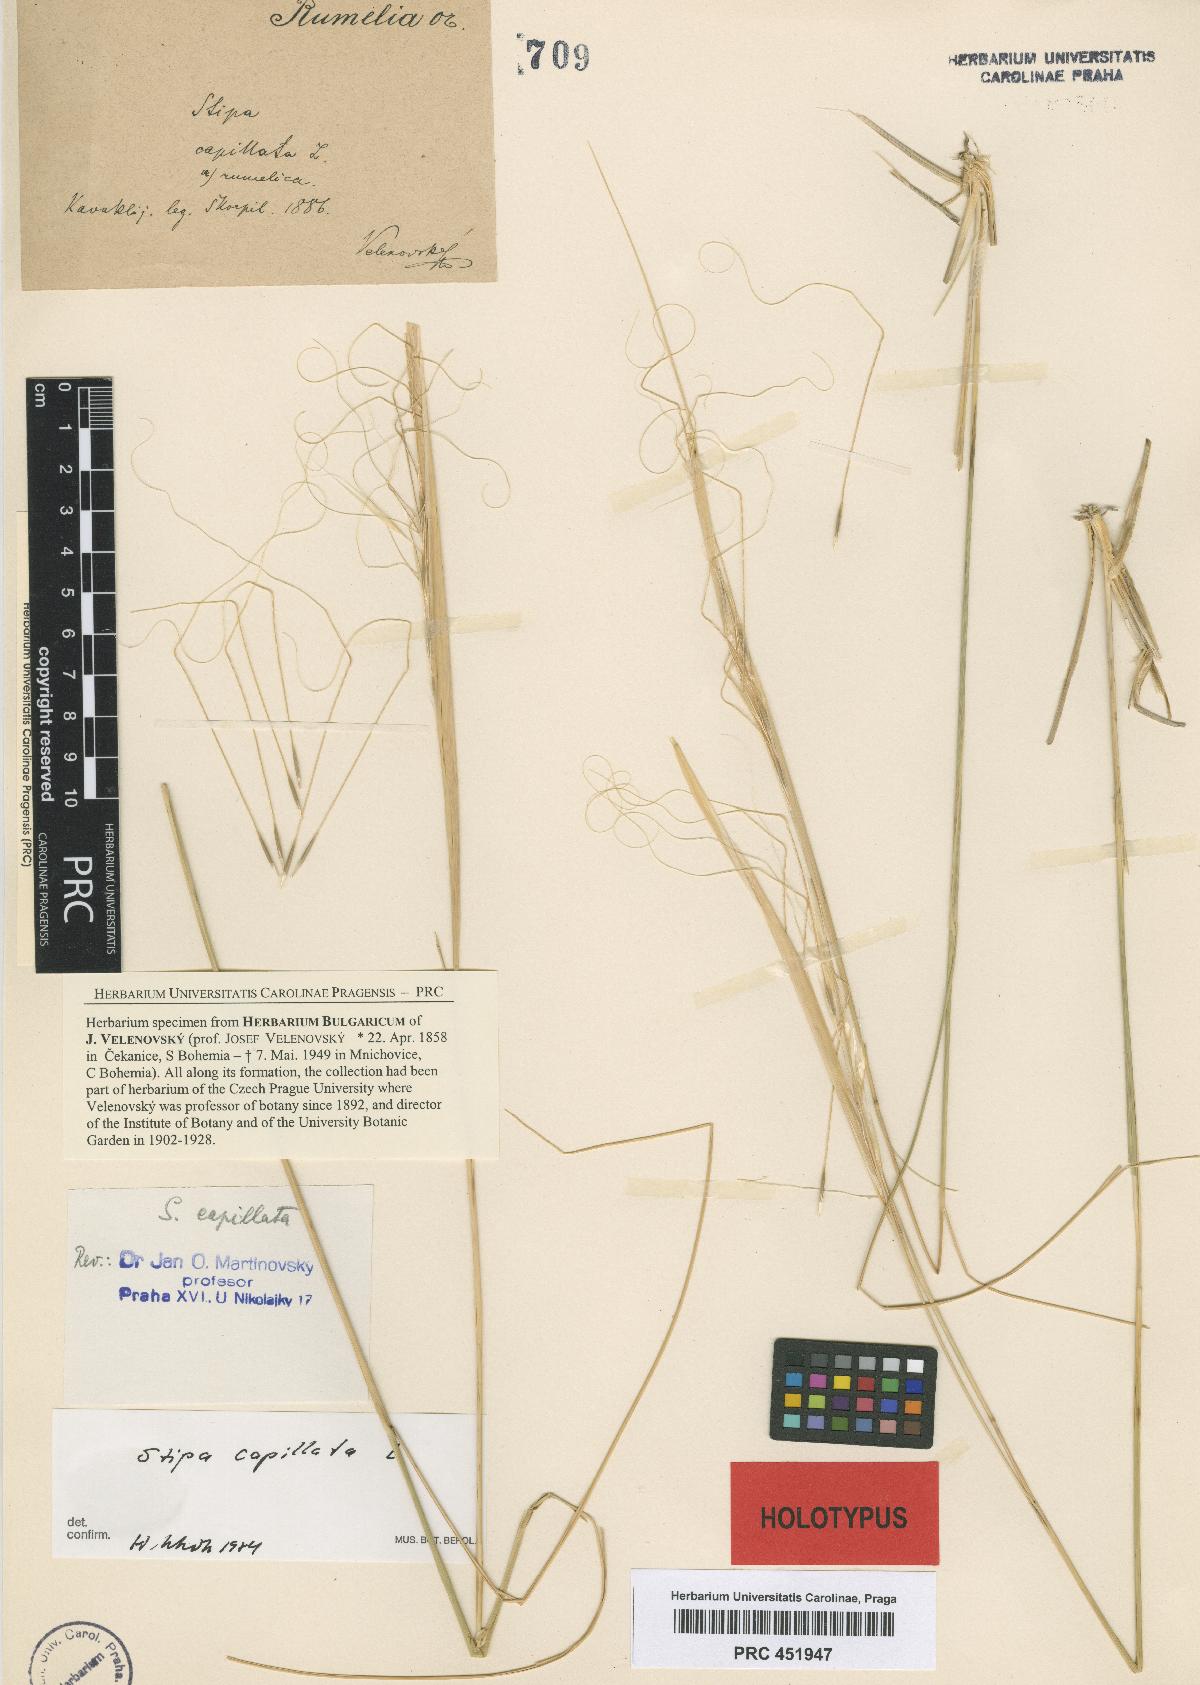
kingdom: Plantae
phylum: Tracheophyta
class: Liliopsida
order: Poales
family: Poaceae
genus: Stipa
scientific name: Stipa capillata
